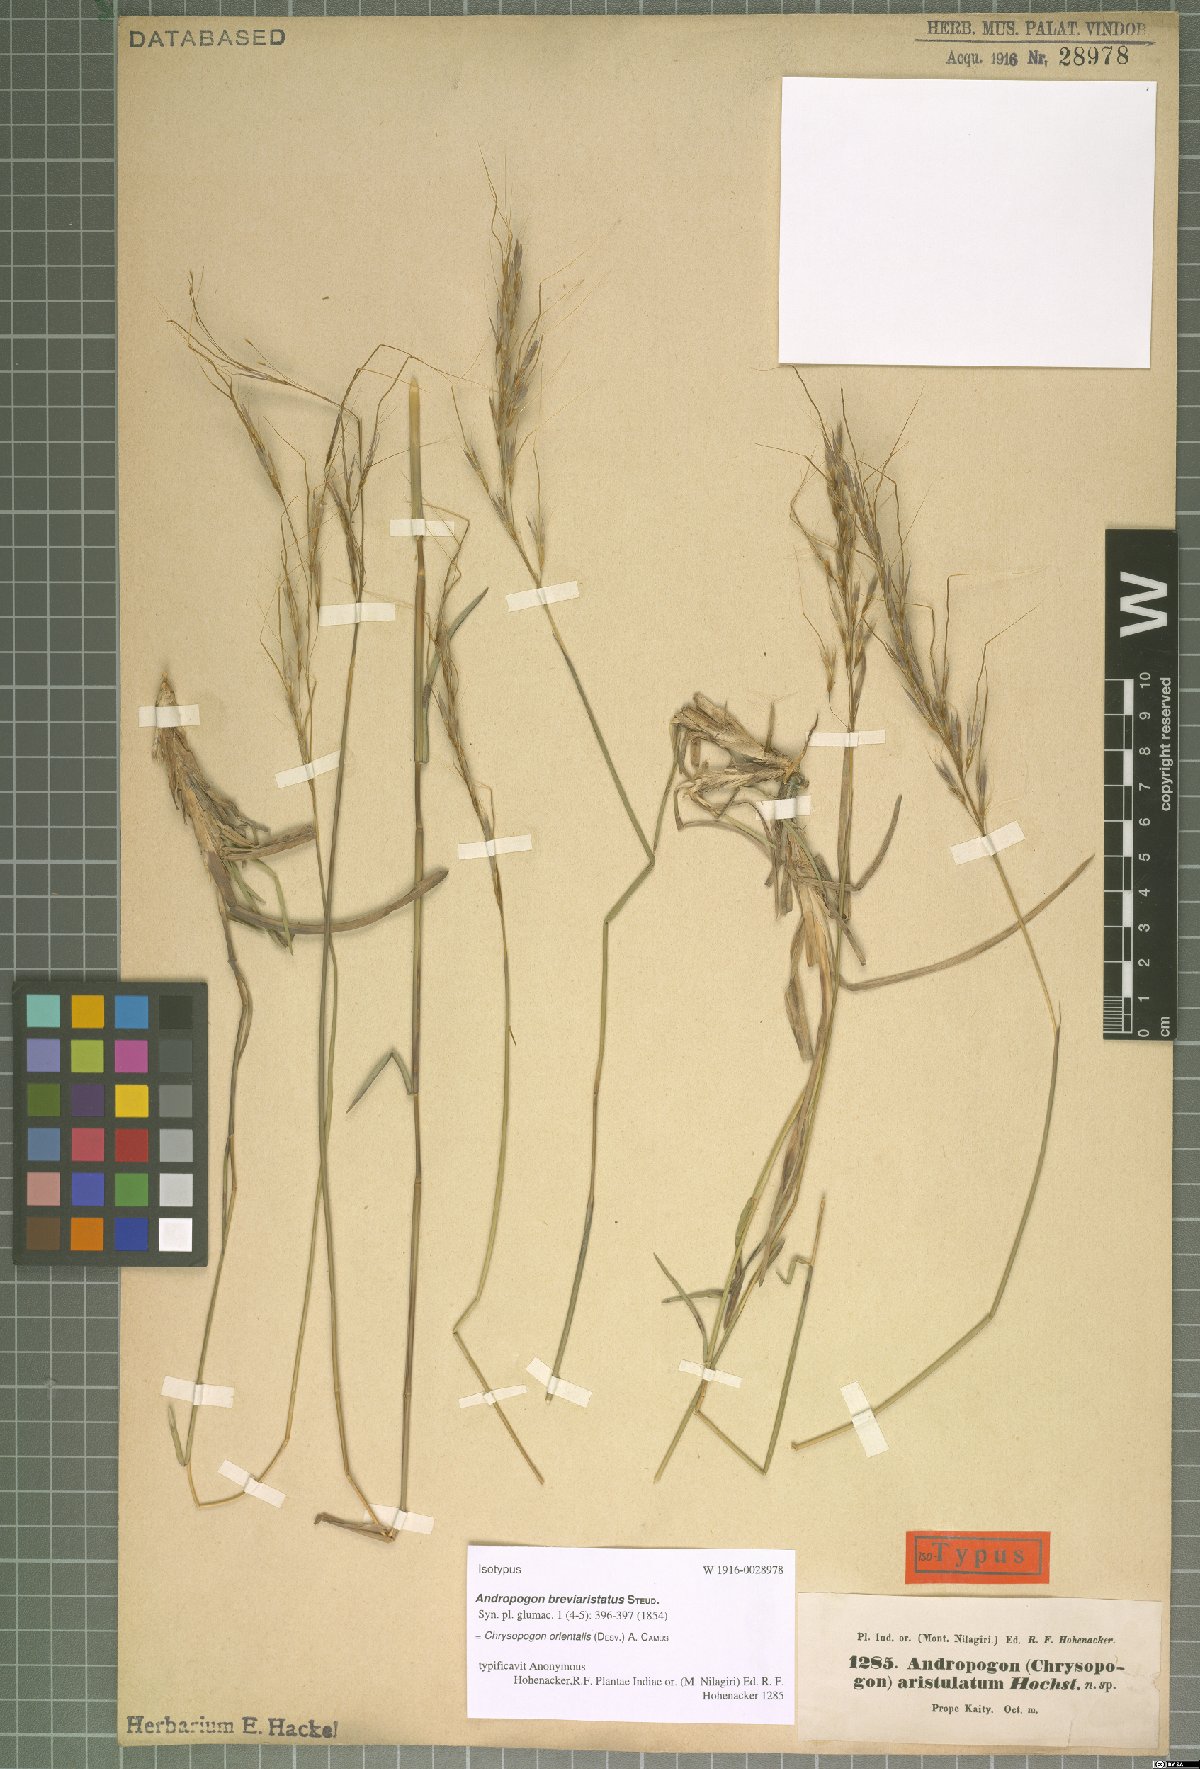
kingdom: Plantae
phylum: Tracheophyta
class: Liliopsida
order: Poales
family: Poaceae
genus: Chrysopogon
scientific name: Chrysopogon orientalis
